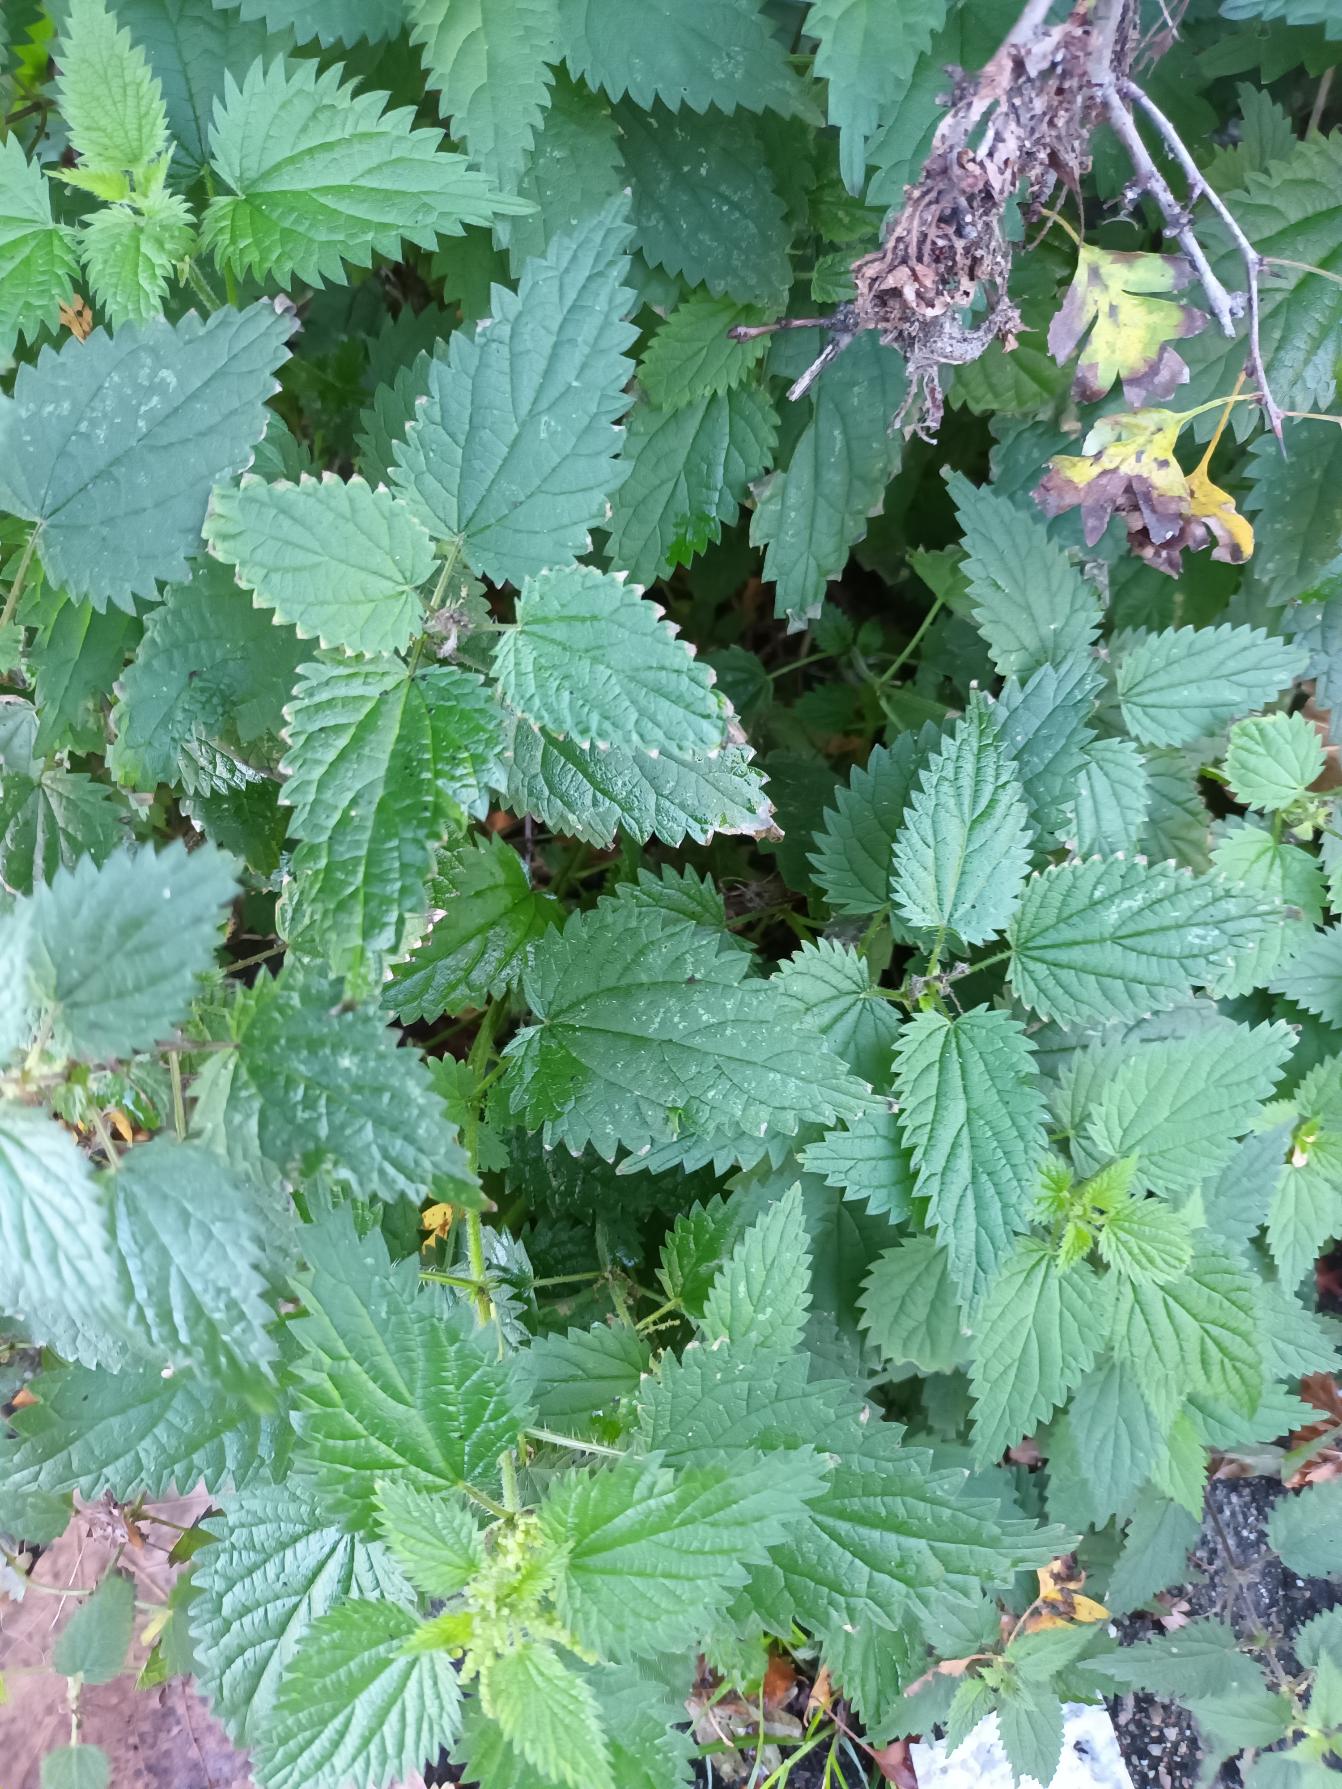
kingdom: Plantae
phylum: Tracheophyta
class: Magnoliopsida
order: Rosales
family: Urticaceae
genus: Urtica
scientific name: Urtica dioica
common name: Stor nælde
